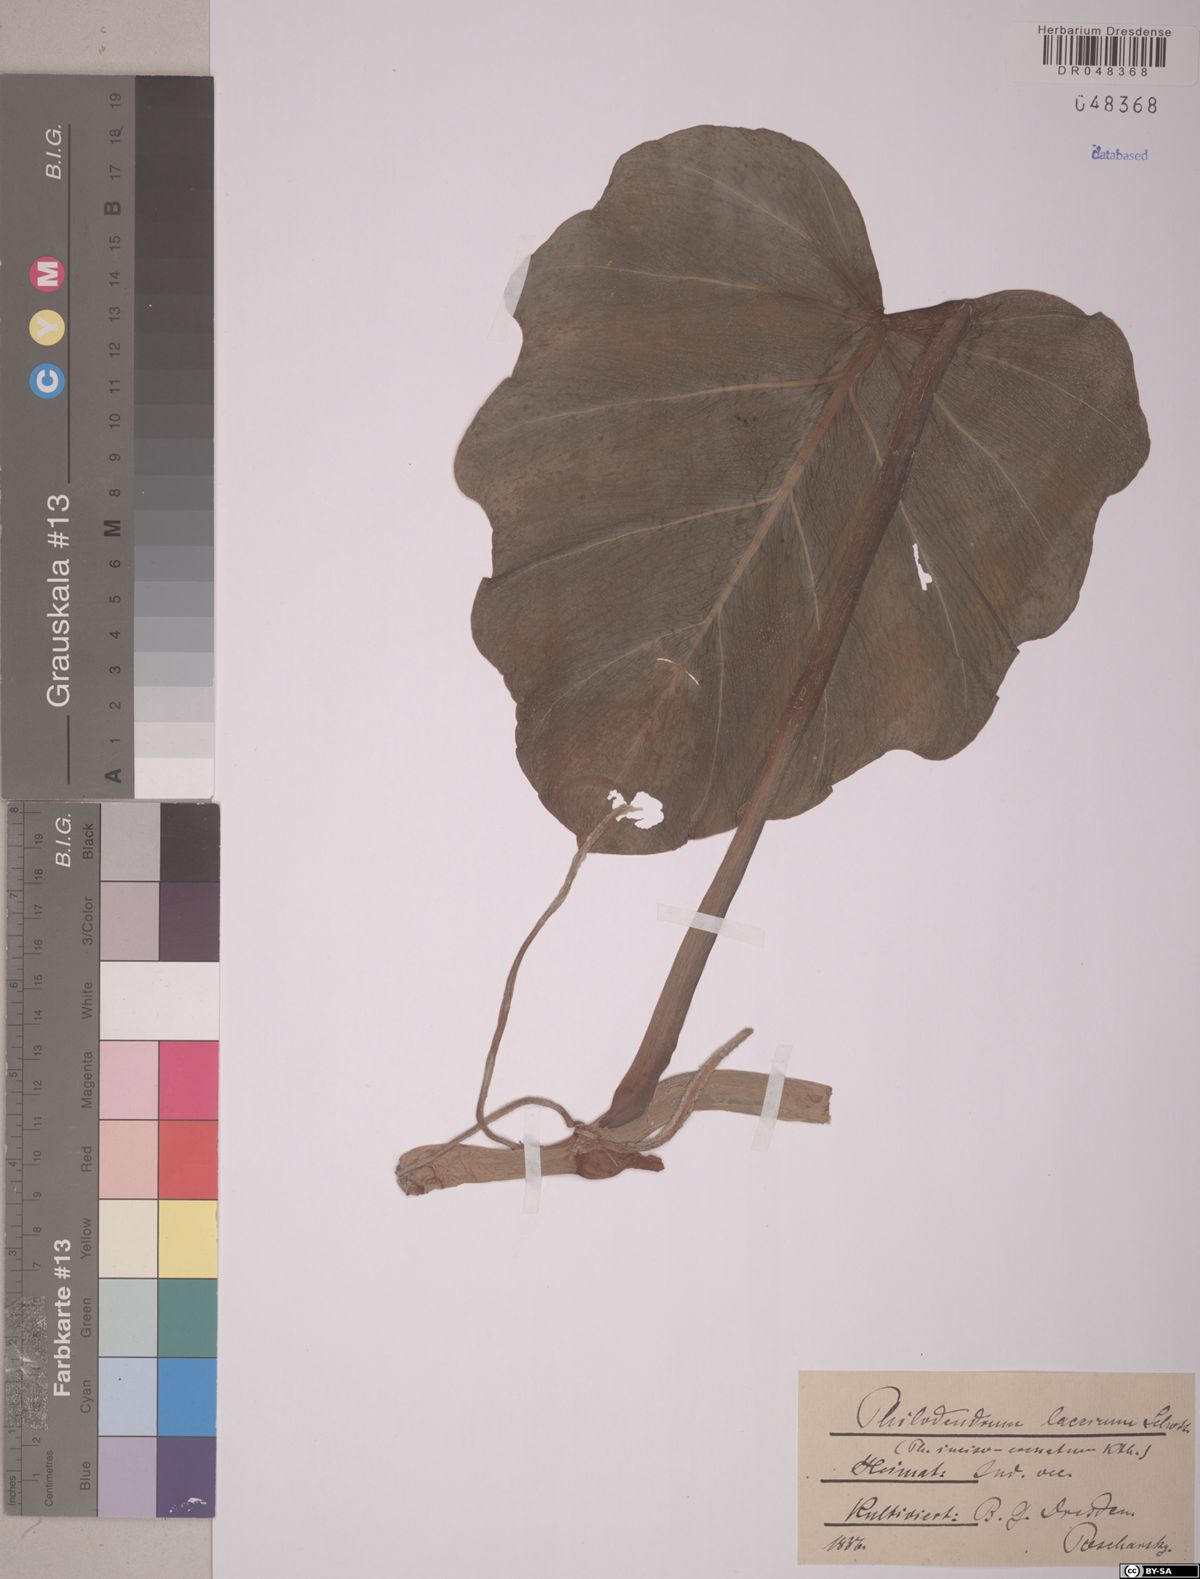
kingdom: Plantae
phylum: Tracheophyta
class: Liliopsida
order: Alismatales
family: Araceae
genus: Philodendron
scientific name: Philodendron lacerum
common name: Philodendron
